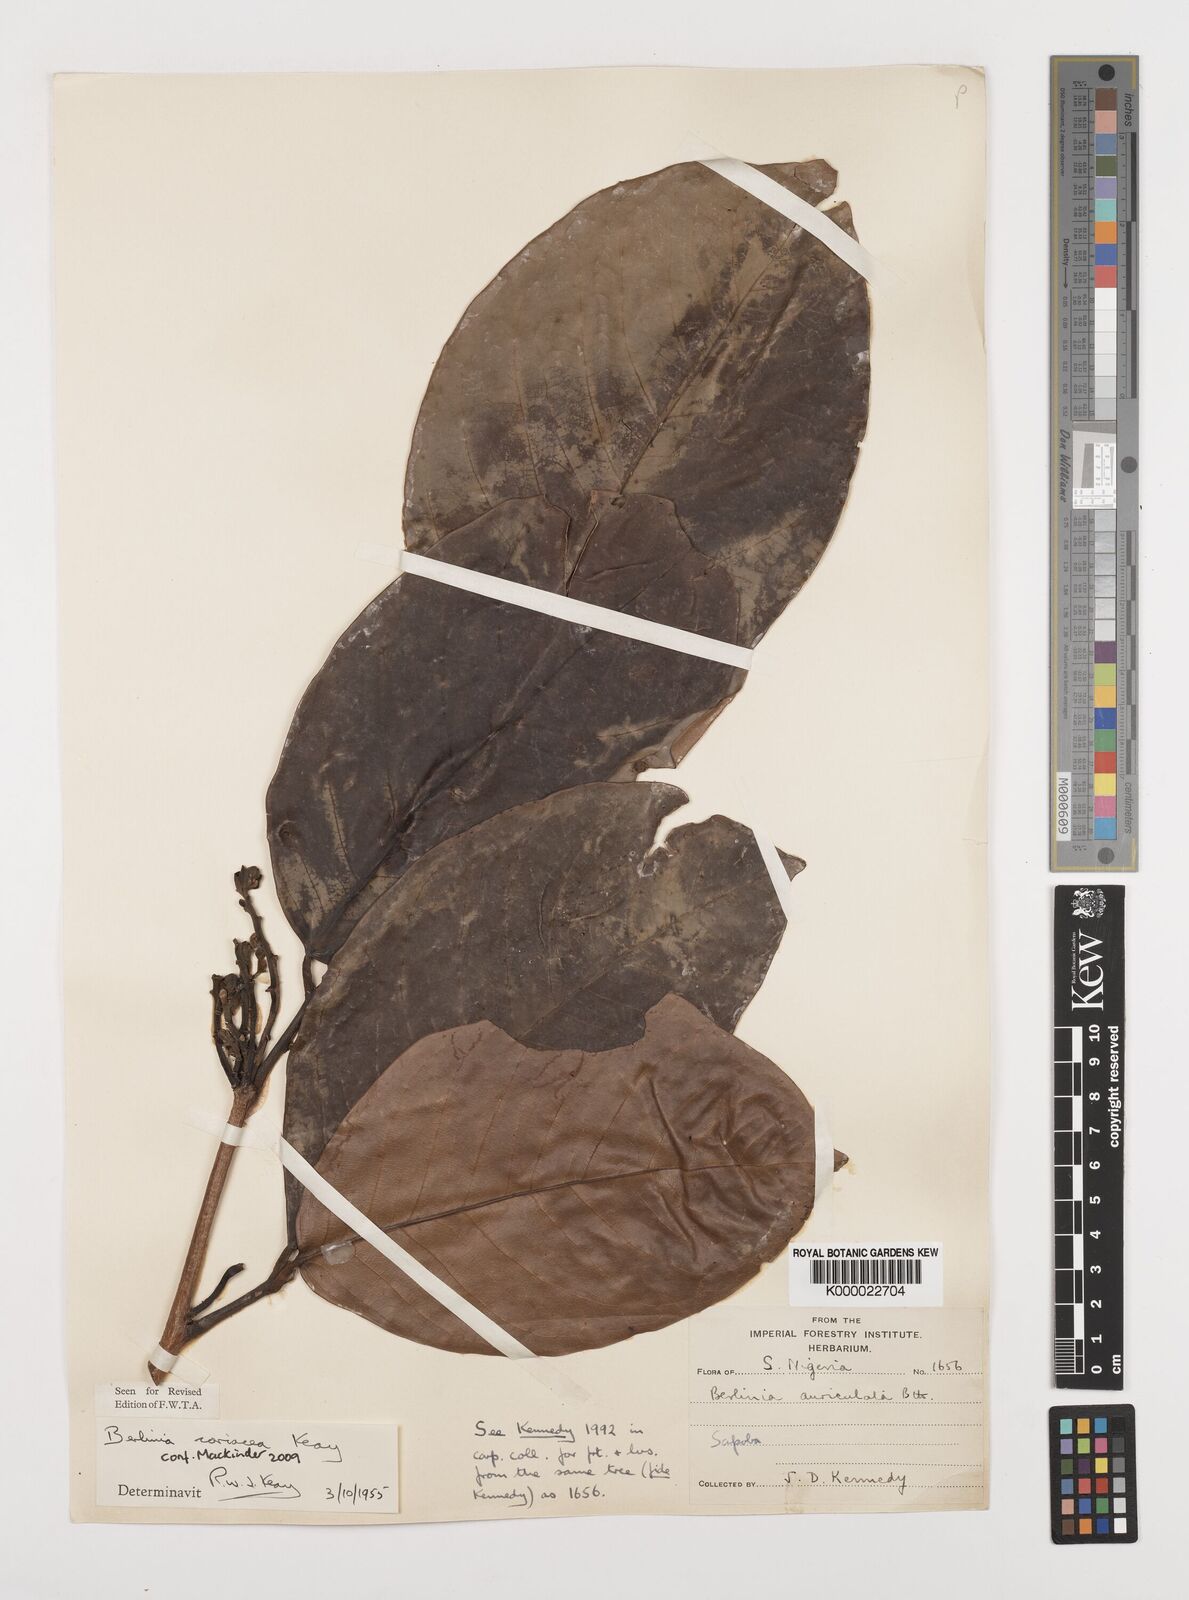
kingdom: Plantae
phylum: Tracheophyta
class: Magnoliopsida
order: Fabales
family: Fabaceae
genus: Berlinia
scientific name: Berlinia coriacea
